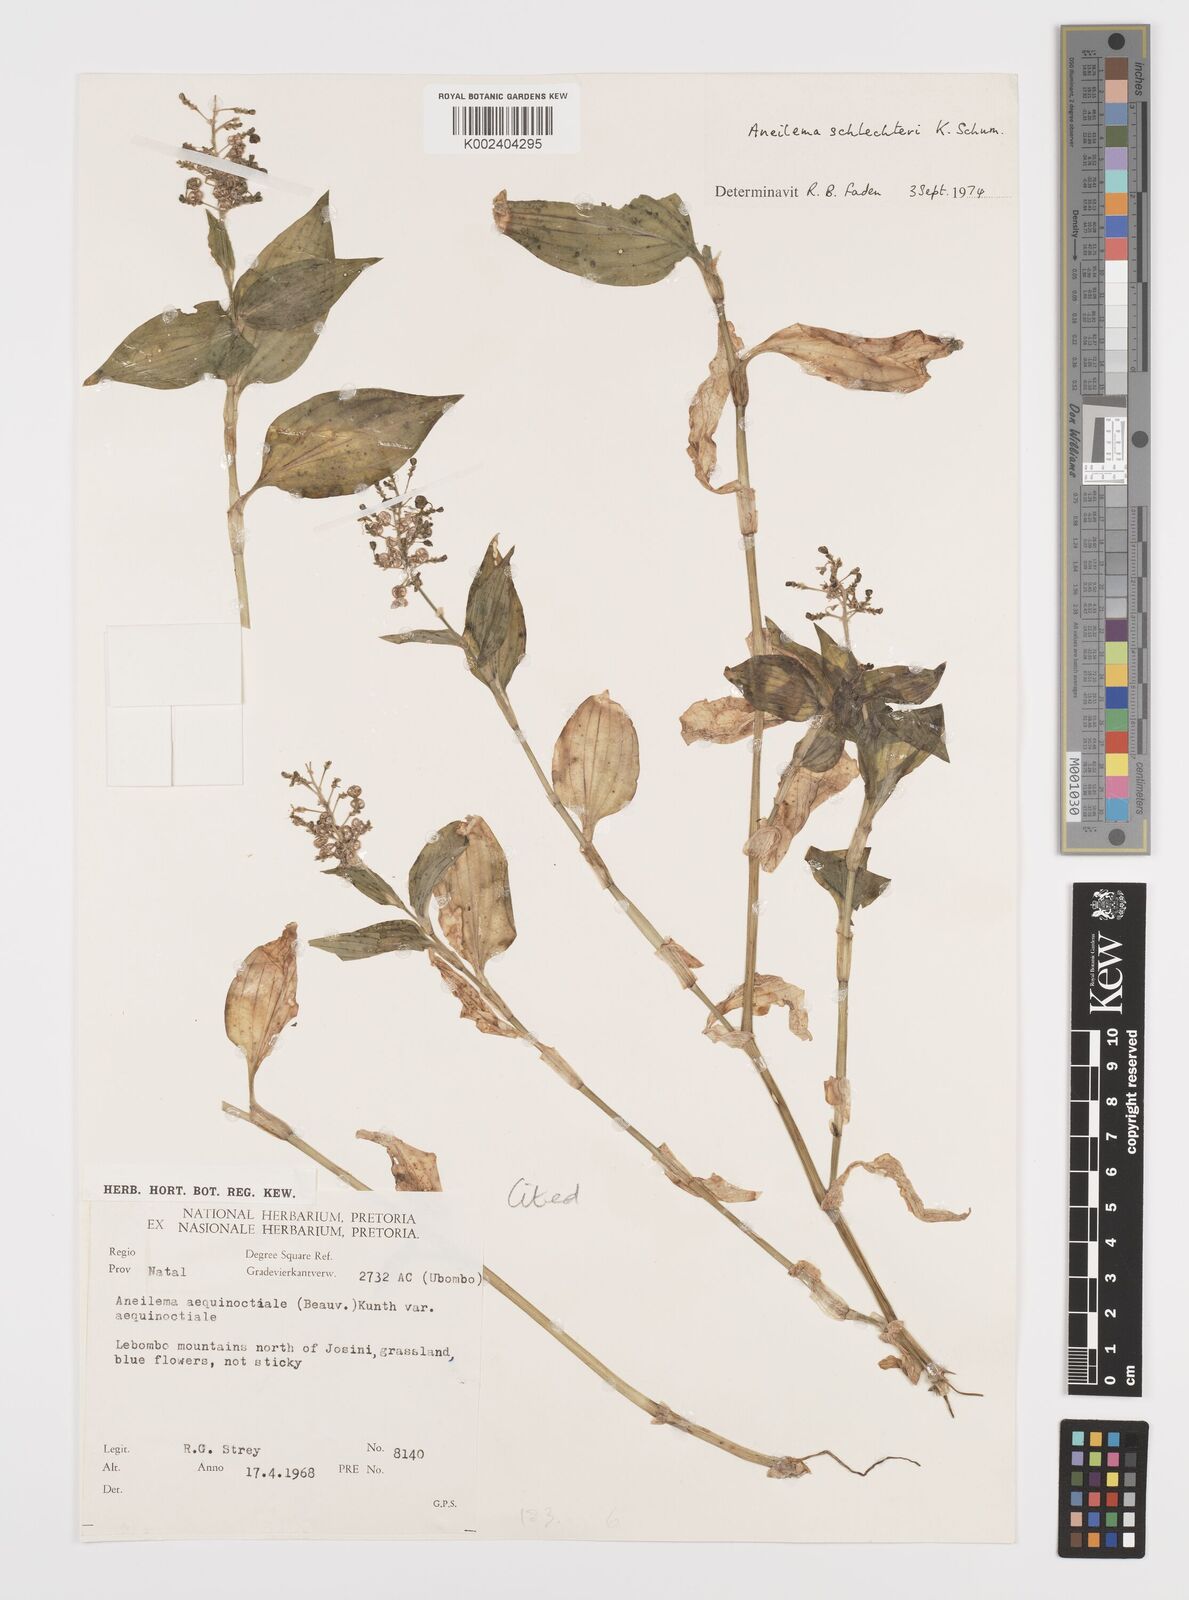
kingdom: Plantae
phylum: Tracheophyta
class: Liliopsida
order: Commelinales
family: Commelinaceae
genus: Aneilema
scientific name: Aneilema brunneospermum
